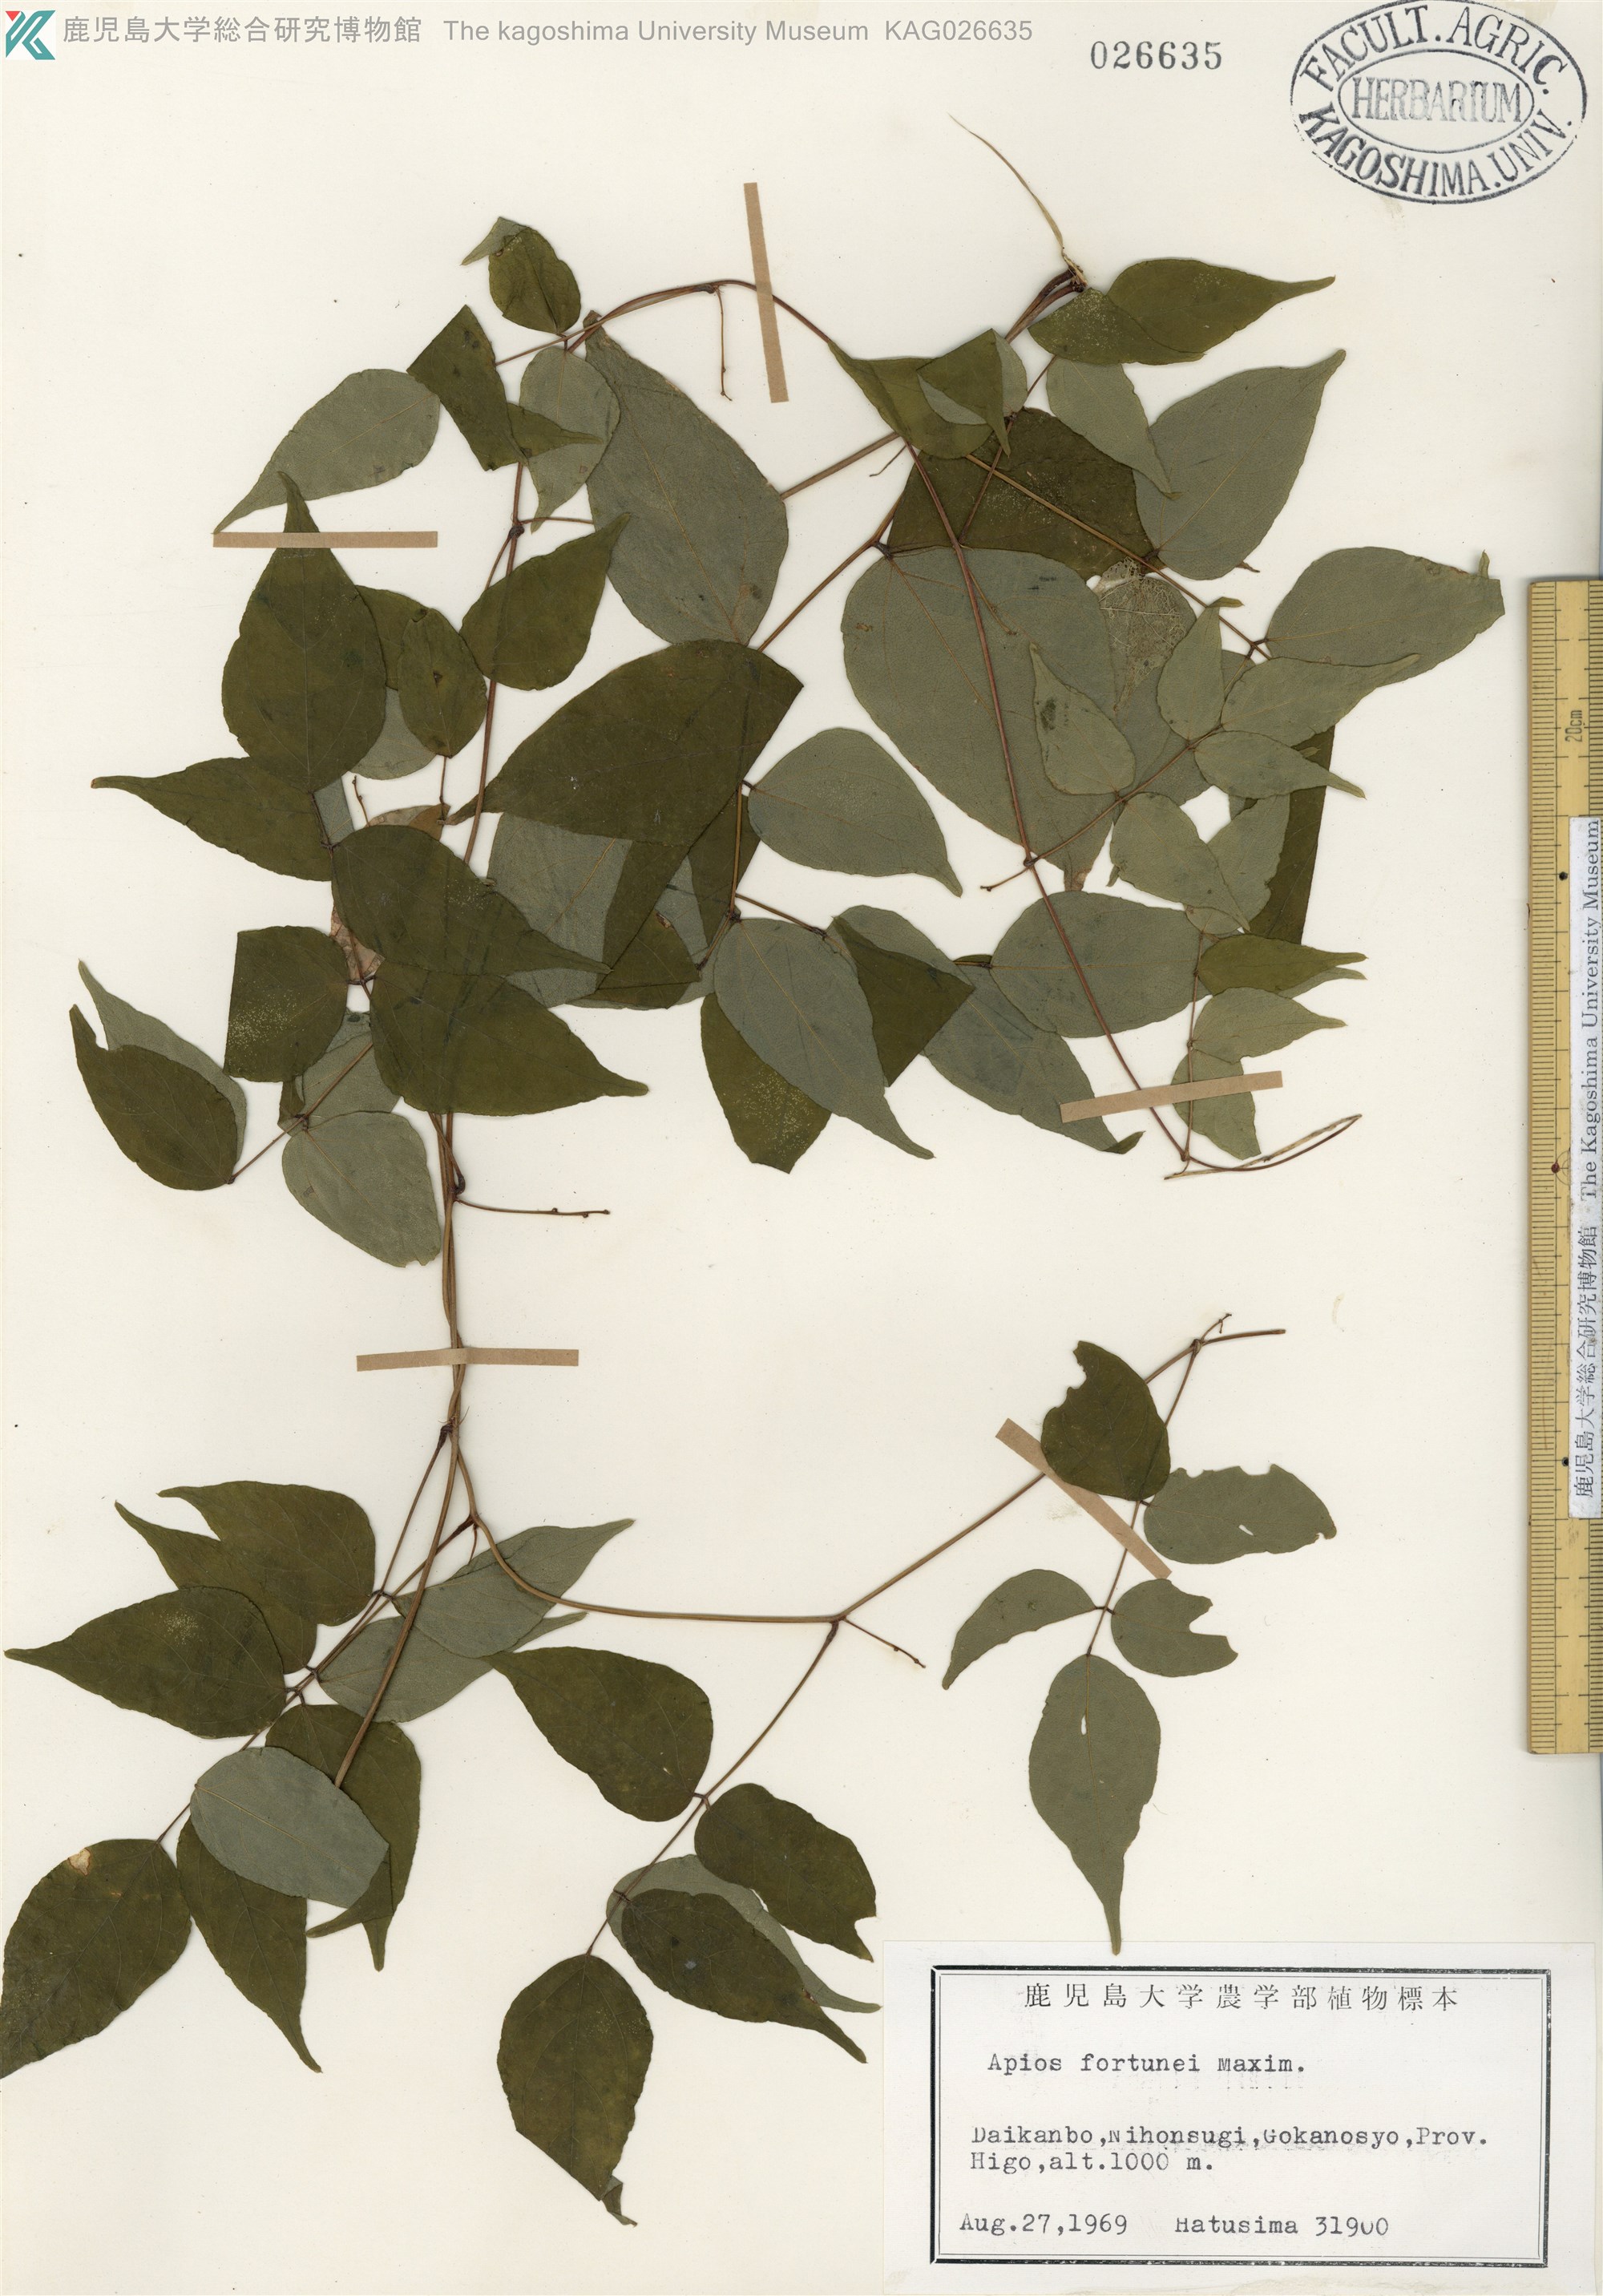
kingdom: Plantae
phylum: Tracheophyta
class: Magnoliopsida
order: Fabales
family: Fabaceae
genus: Apios
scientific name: Apios fortunei
